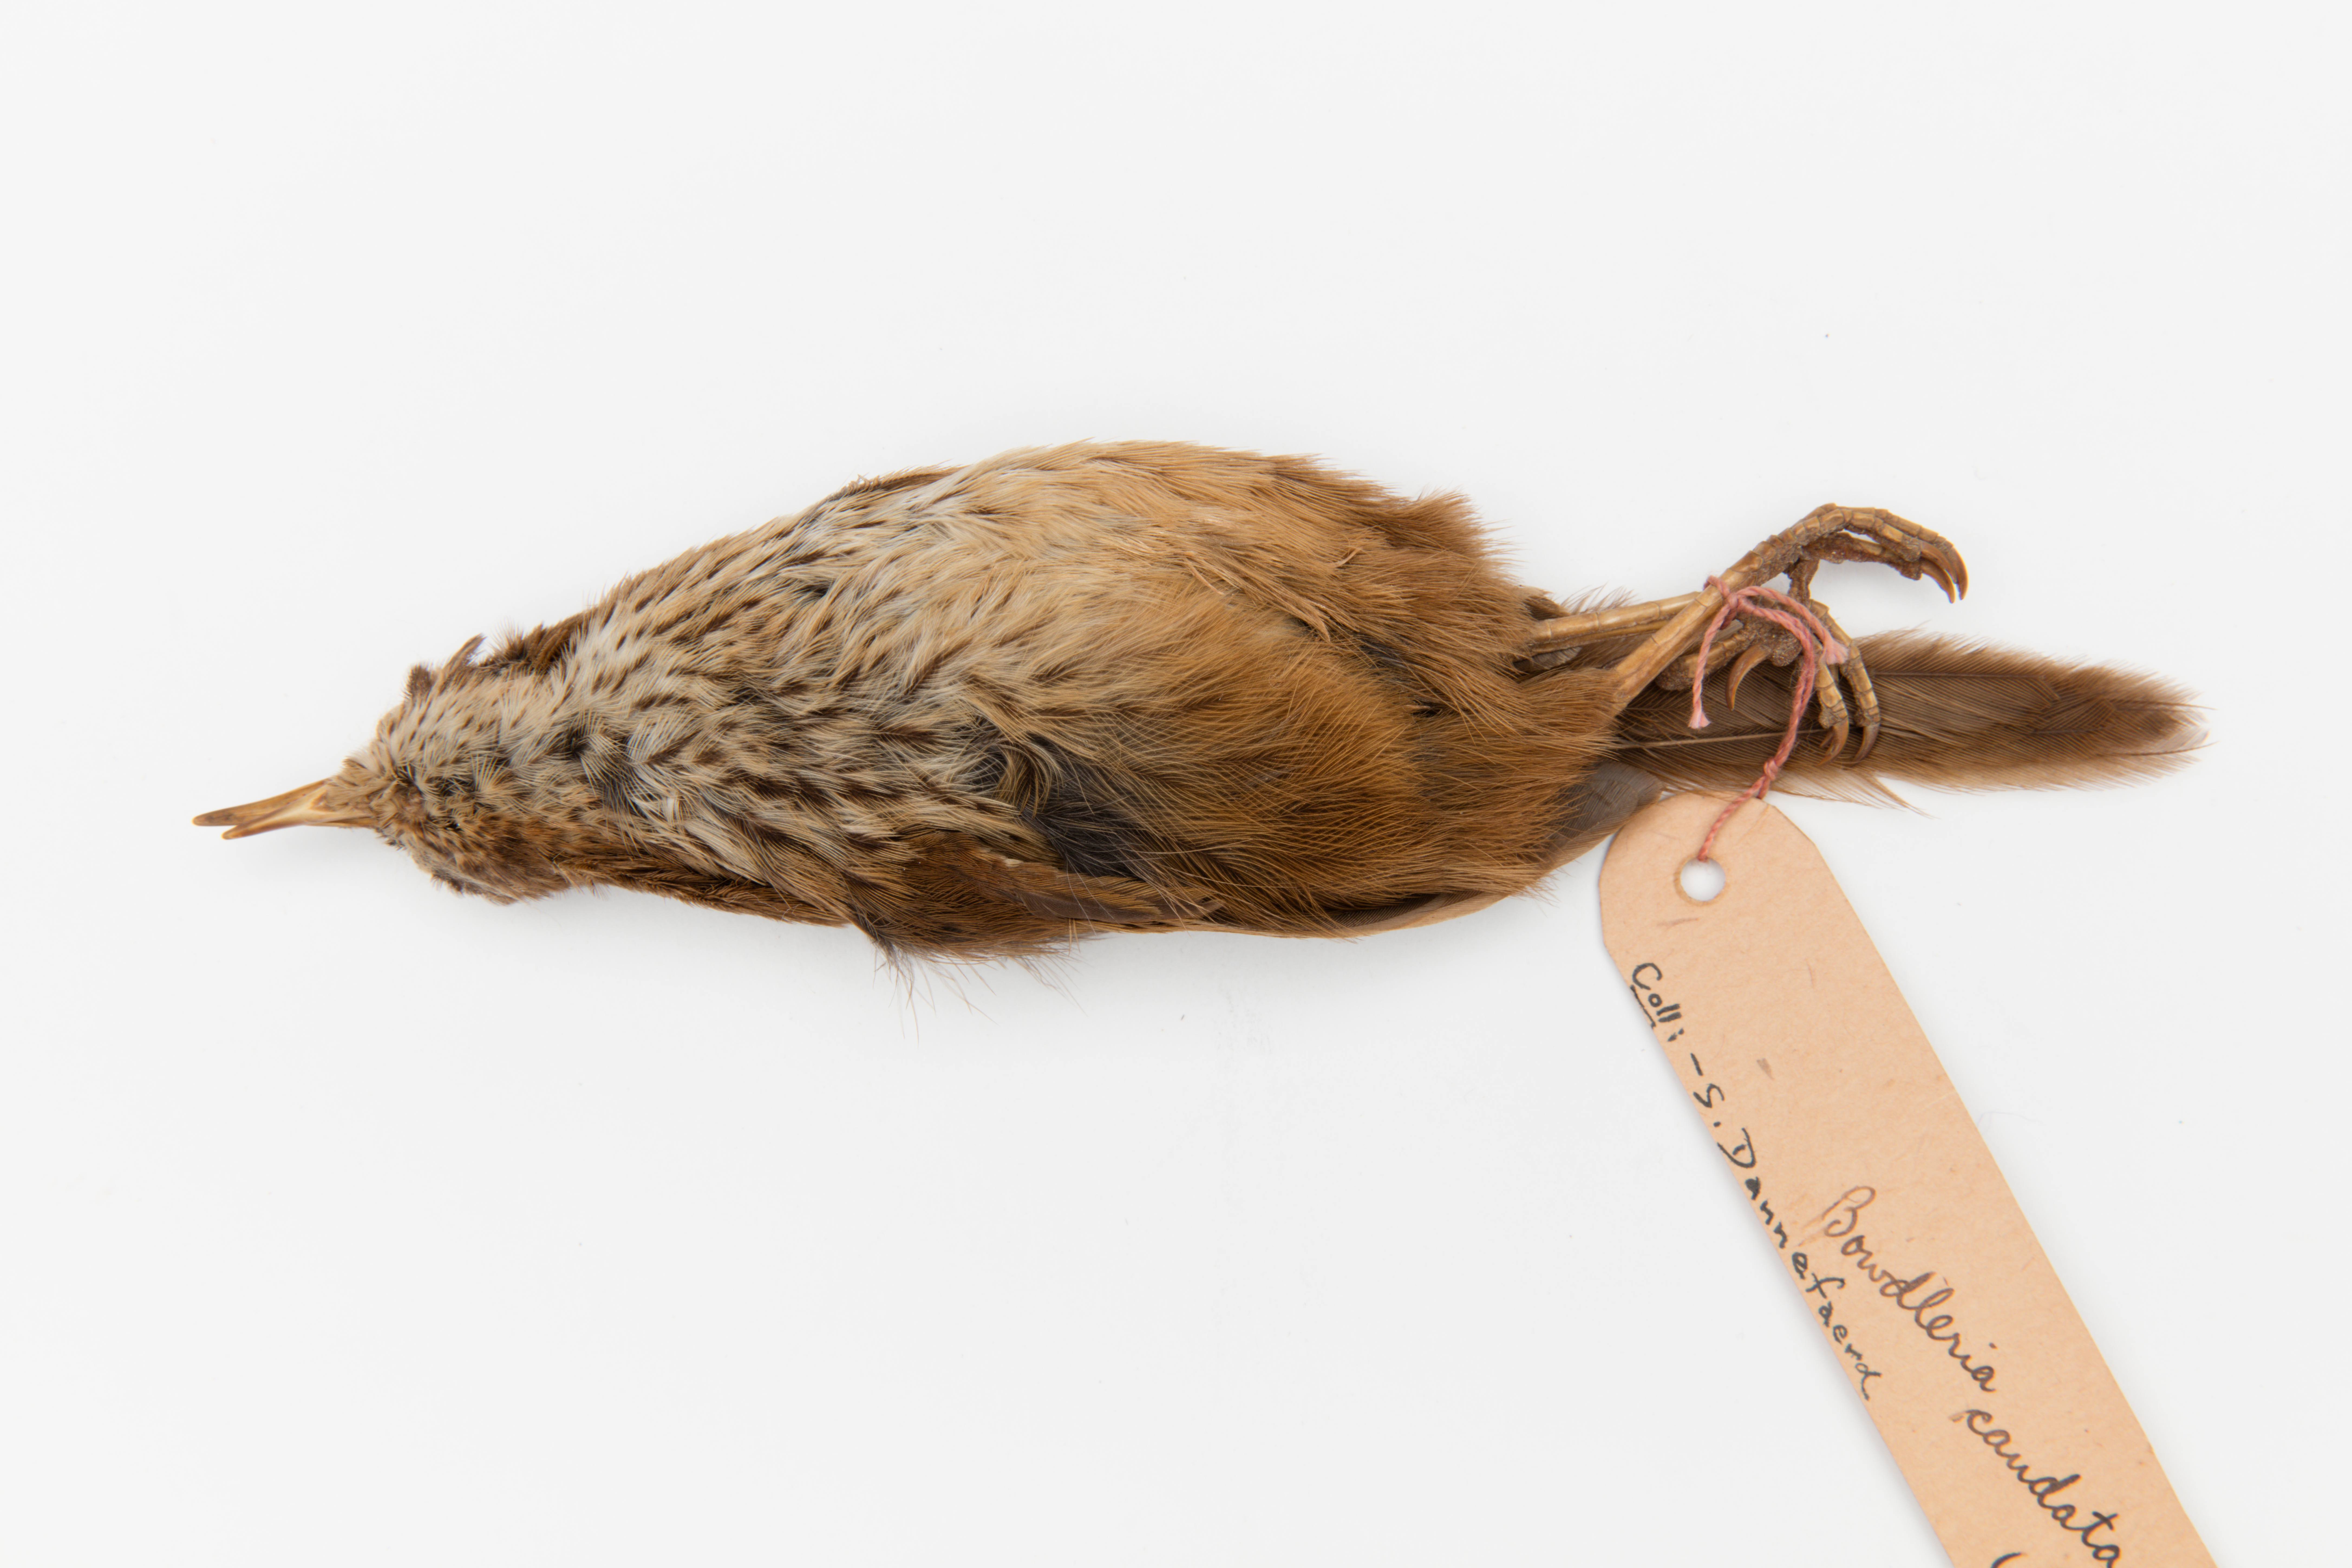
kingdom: Animalia
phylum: Chordata
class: Aves
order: Passeriformes
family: Locustellidae
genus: Megalurus
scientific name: Megalurus punctatus
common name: New zealand fernbird
